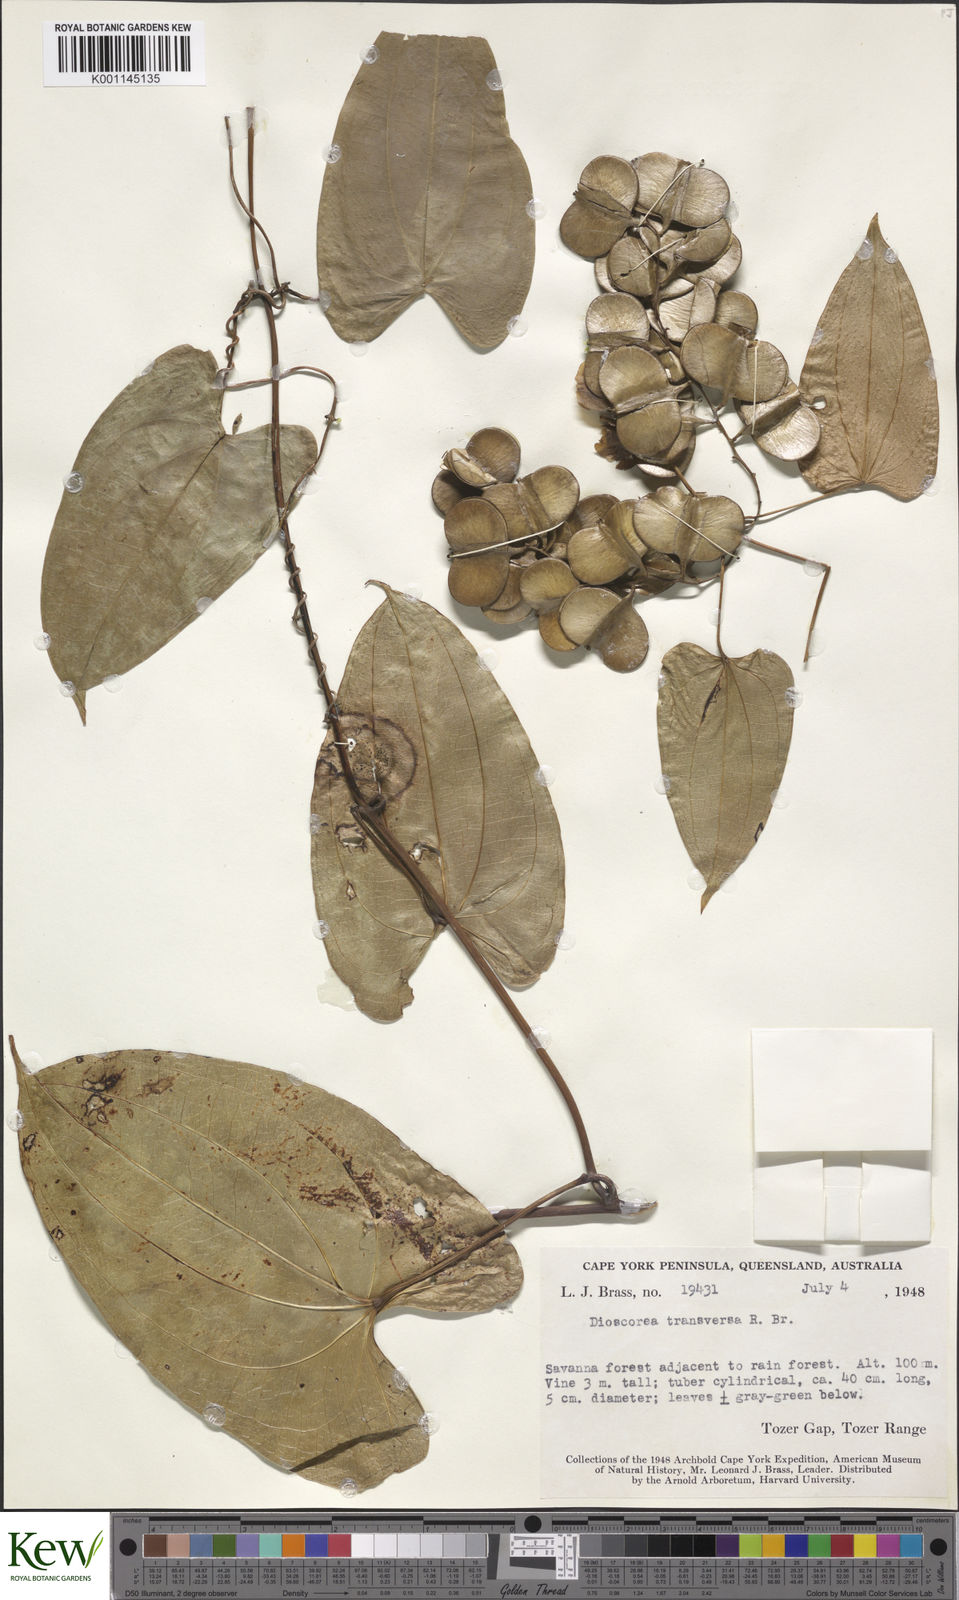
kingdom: Plantae
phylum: Tracheophyta
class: Liliopsida
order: Dioscoreales
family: Dioscoreaceae
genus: Dioscorea
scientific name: Dioscorea transversa
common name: Long yam
